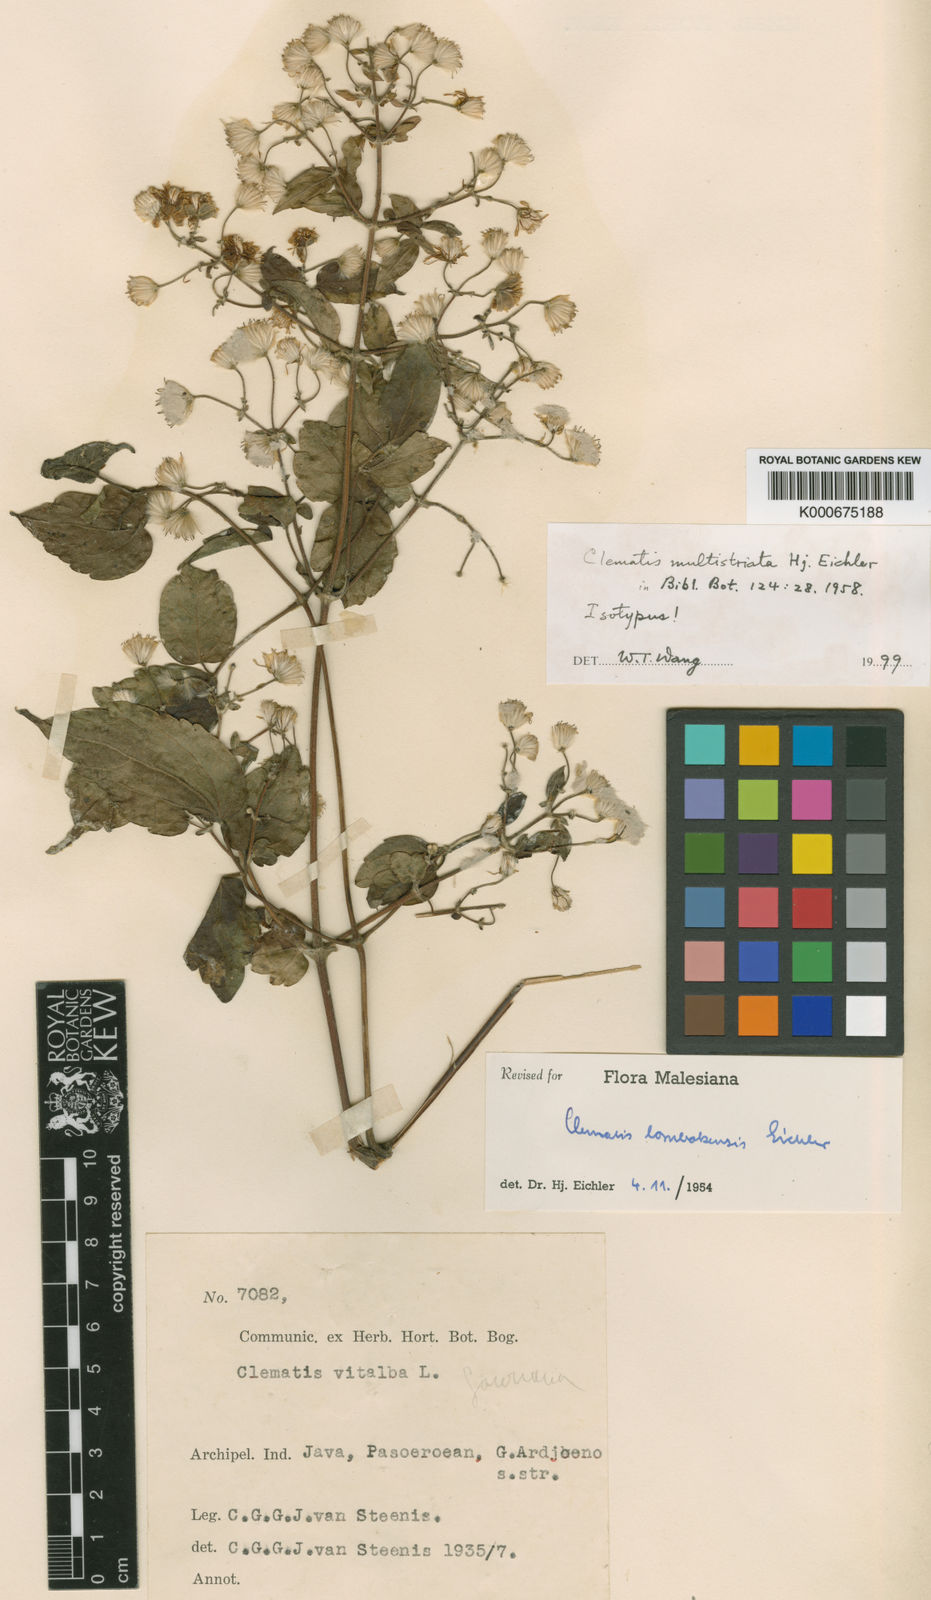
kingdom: Plantae
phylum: Tracheophyta
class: Magnoliopsida
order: Ranunculales
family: Ranunculaceae
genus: Clematis
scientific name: Clematis multistriata
